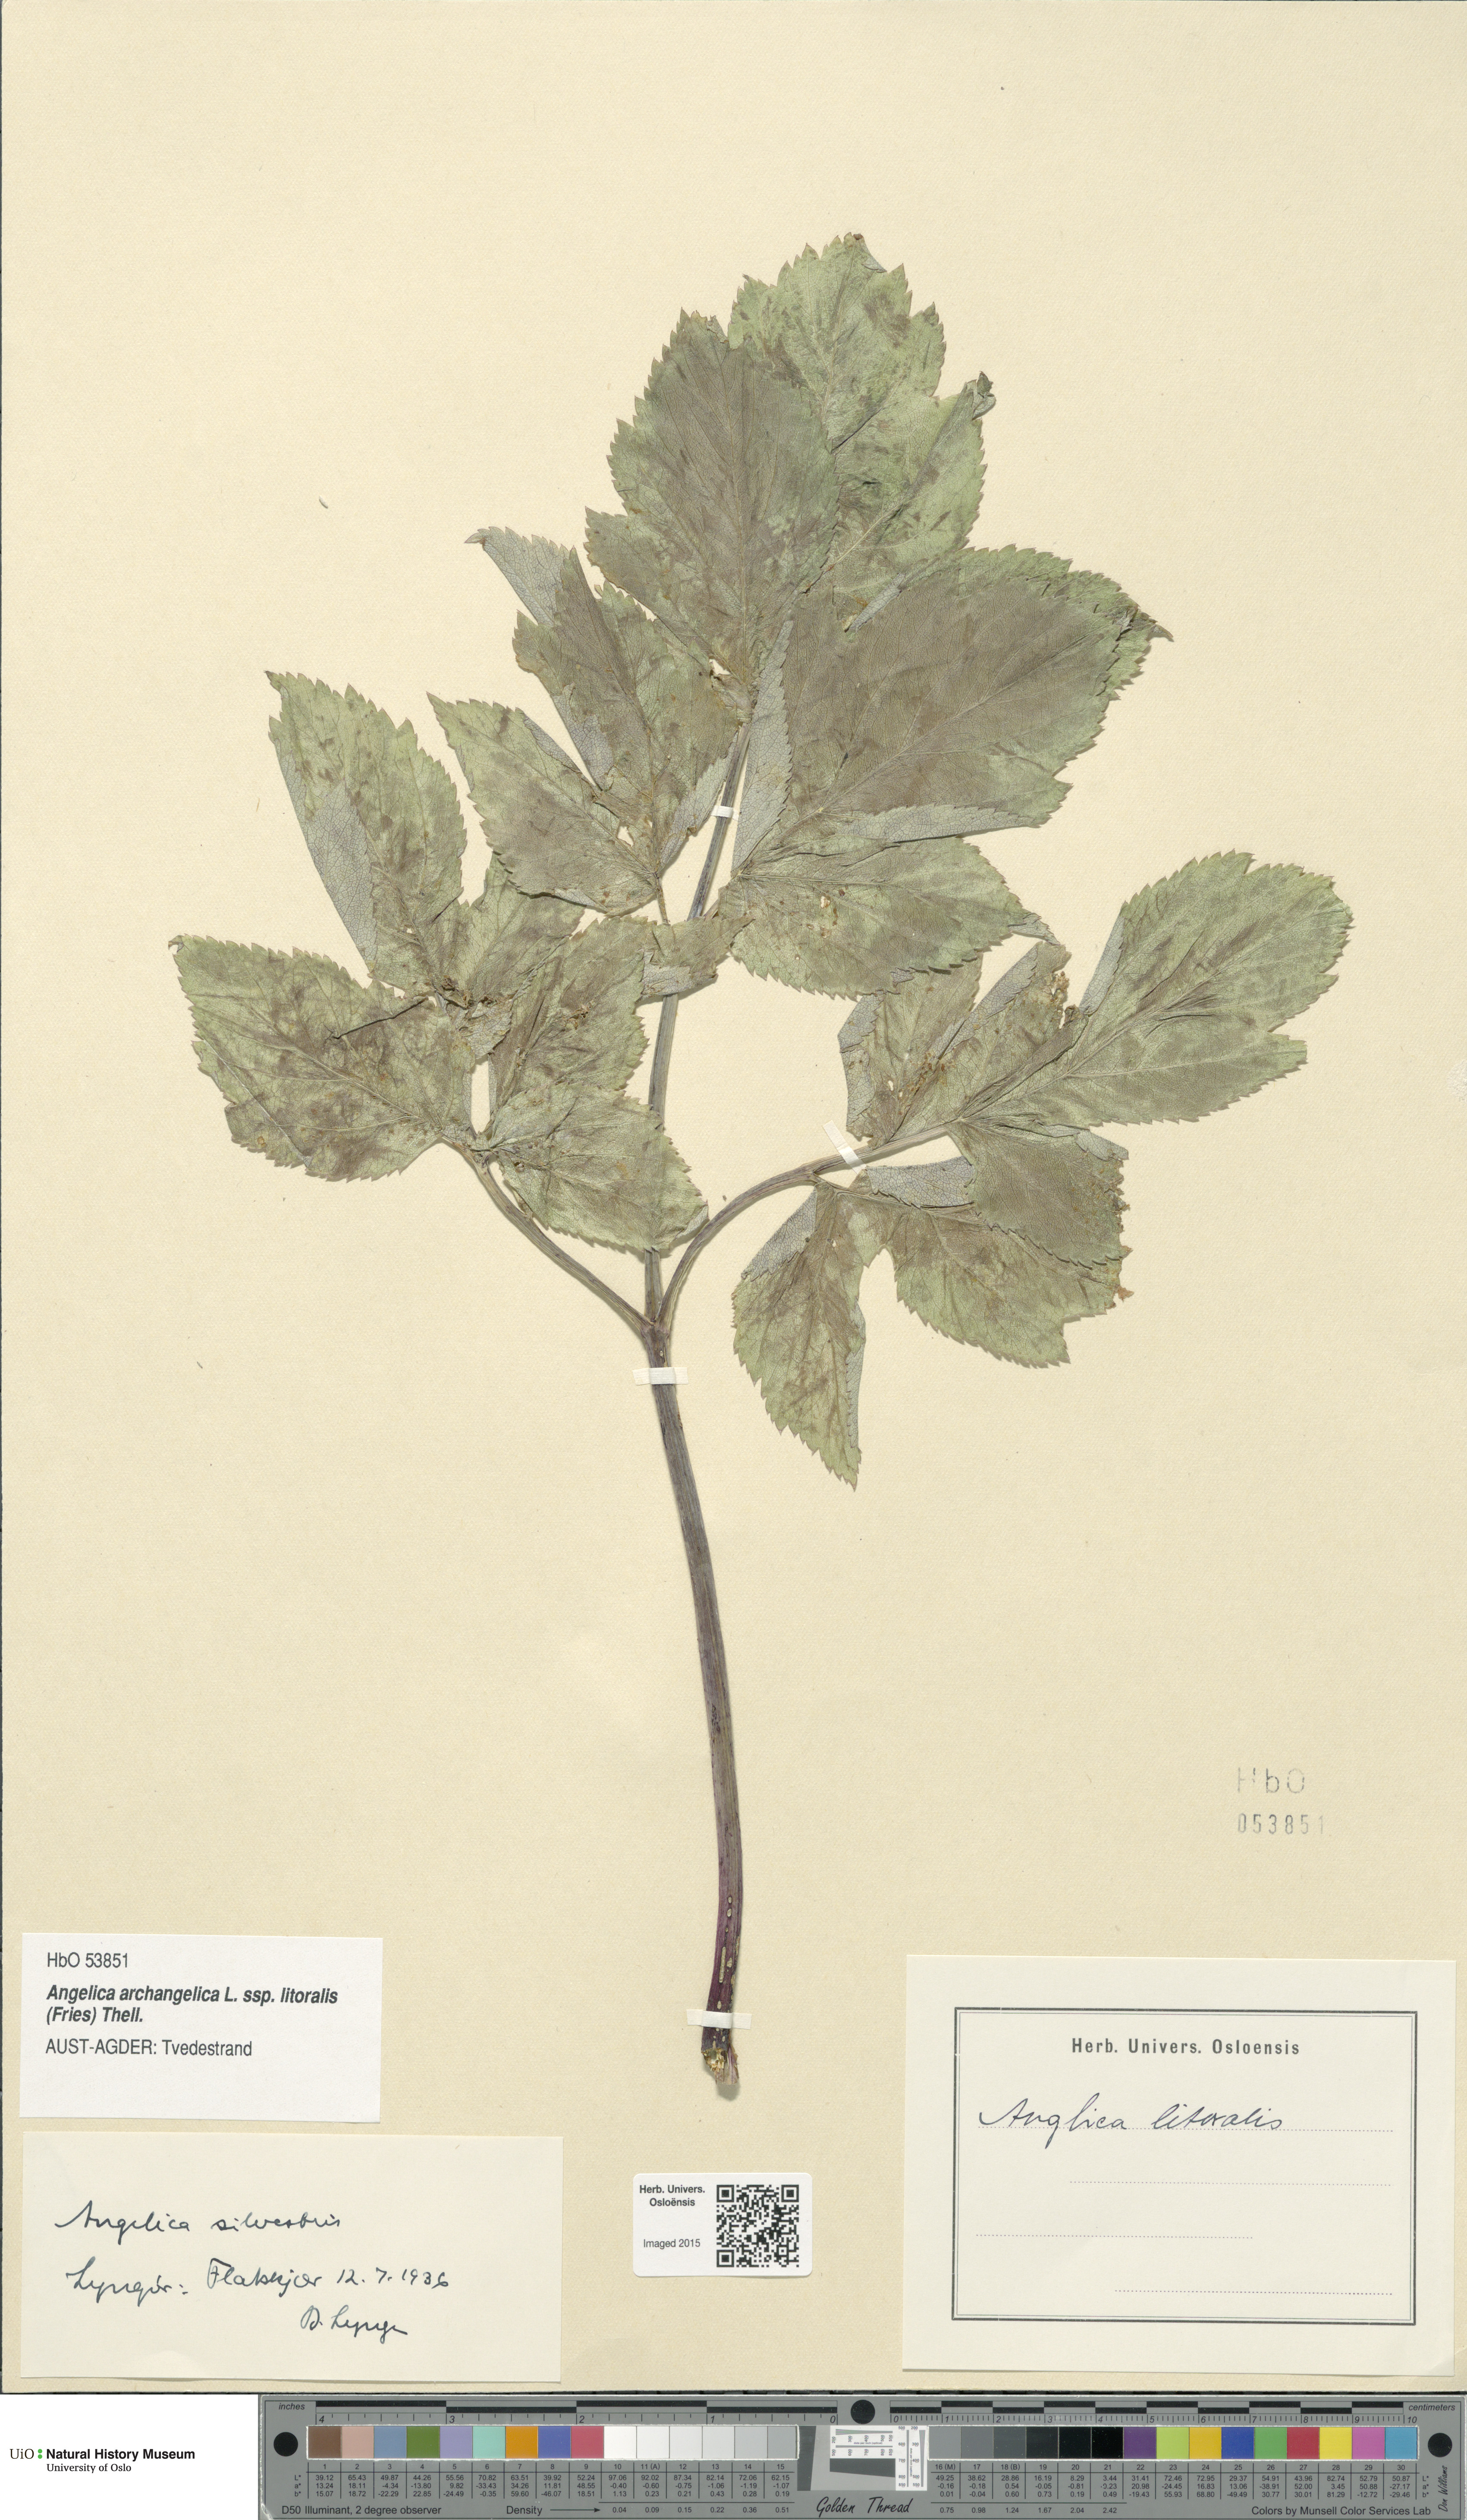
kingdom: Plantae
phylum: Tracheophyta
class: Magnoliopsida
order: Apiales
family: Apiaceae
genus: Angelica
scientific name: Angelica archangelica
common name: Garden angelica
